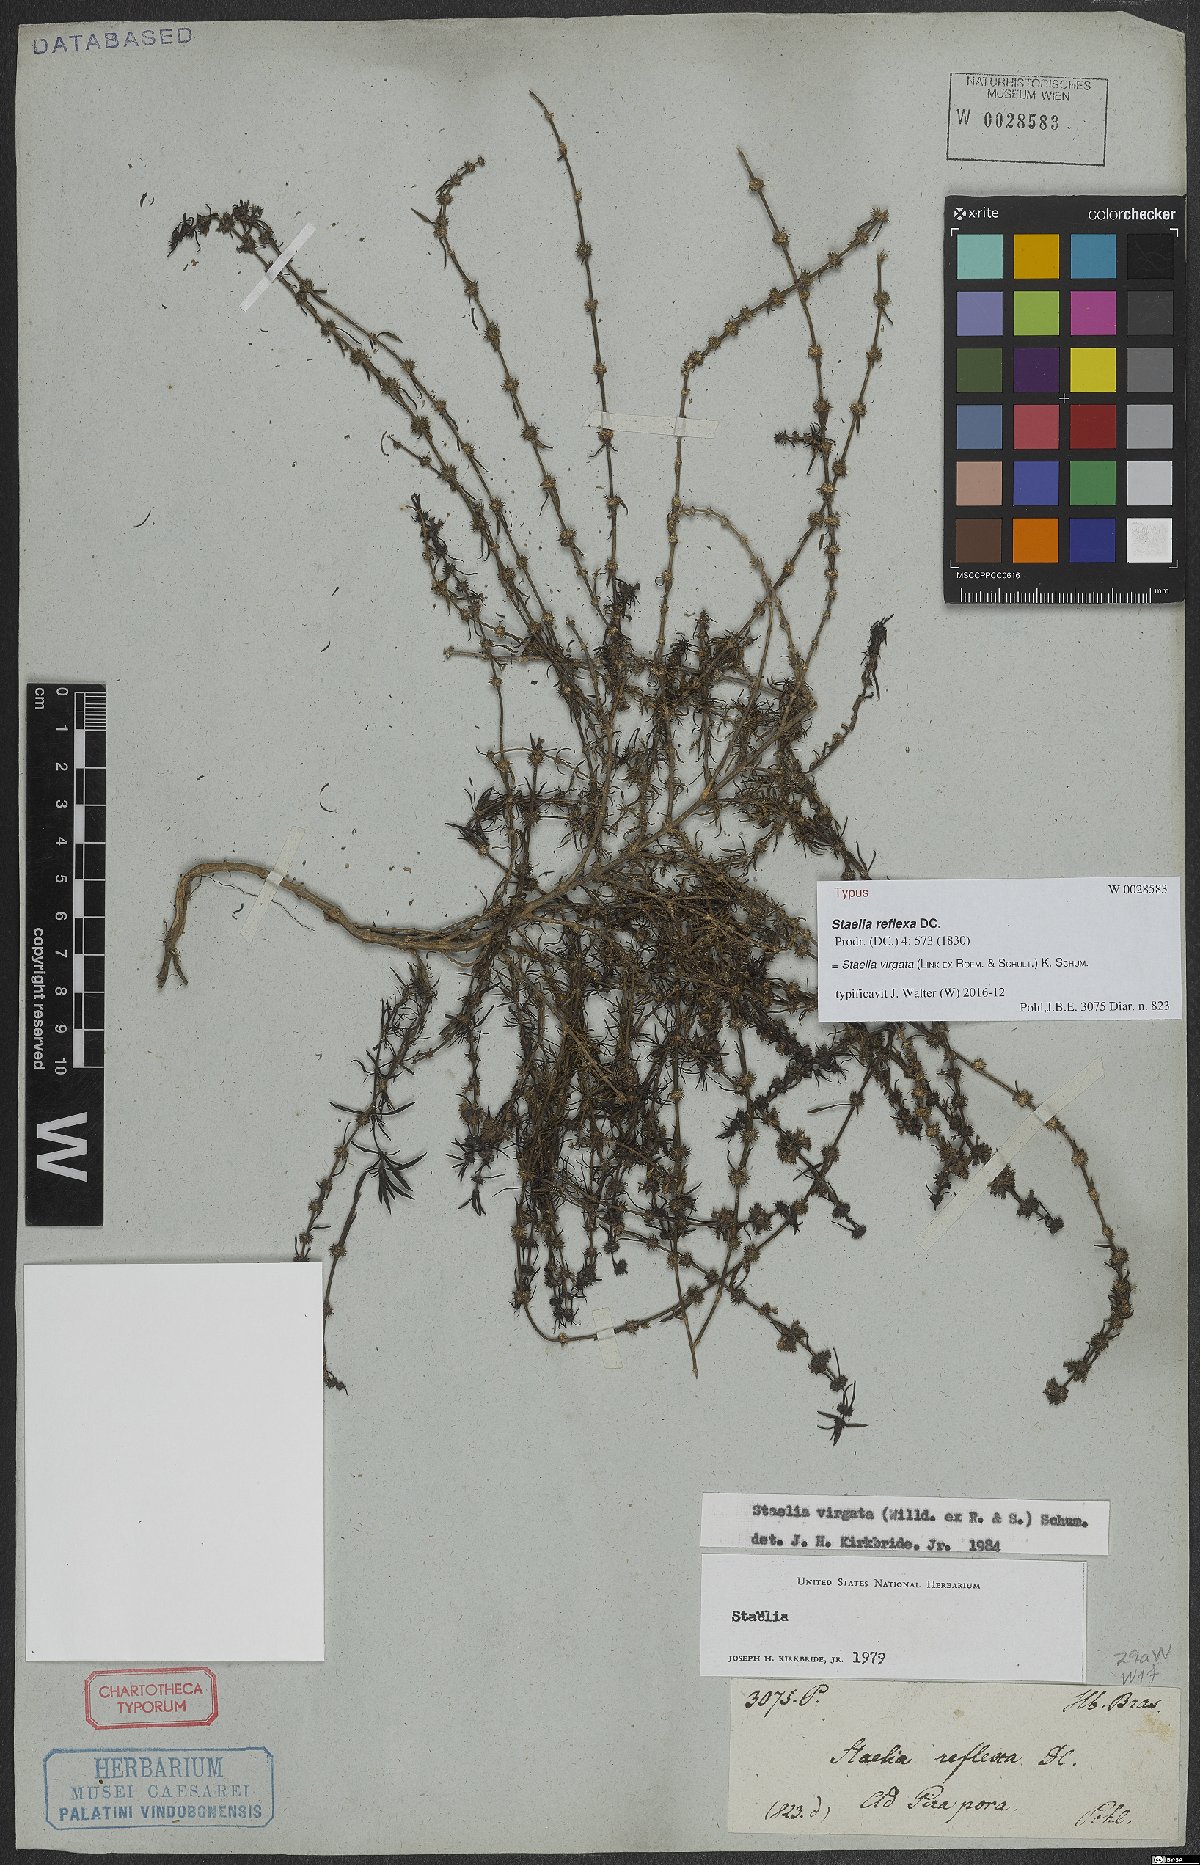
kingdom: Plantae
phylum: Tracheophyta
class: Magnoliopsida
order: Gentianales
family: Rubiaceae
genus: Staelia
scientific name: Staelia virgata
